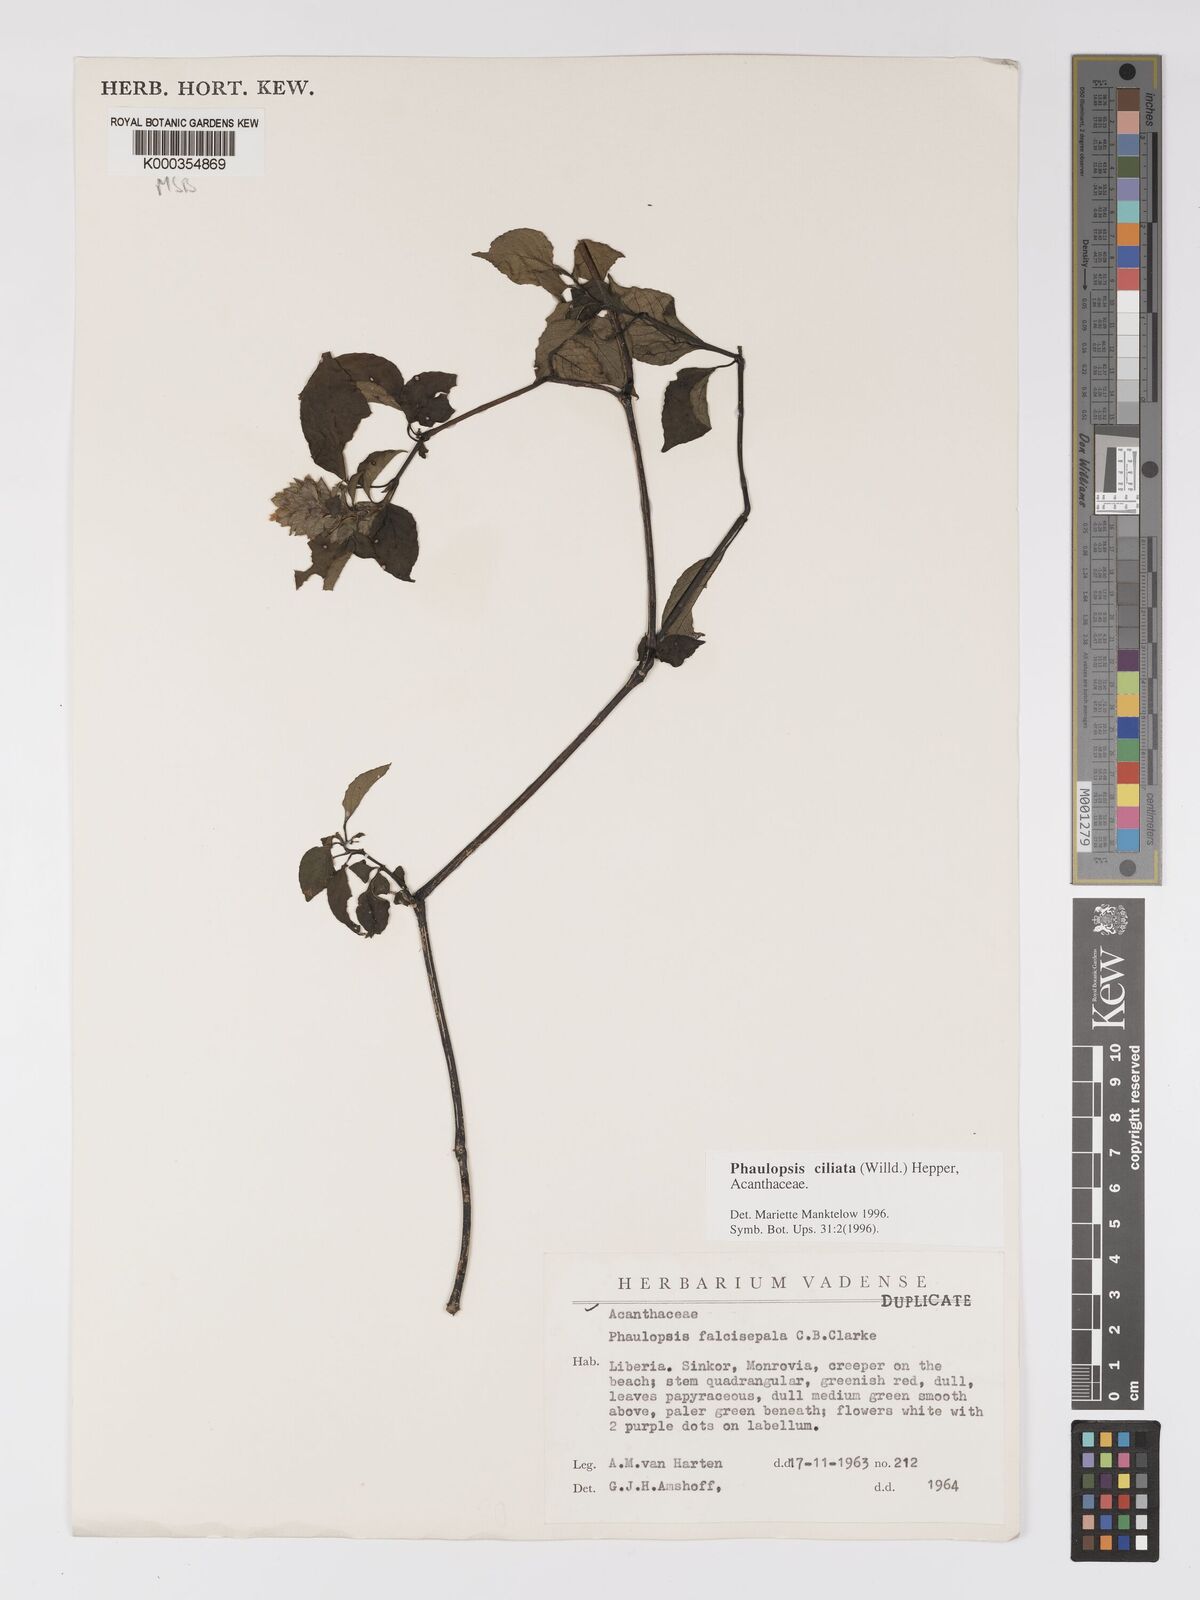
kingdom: Plantae
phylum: Tracheophyta
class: Magnoliopsida
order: Lamiales
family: Acanthaceae
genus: Phaulopsis
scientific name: Phaulopsis ciliata
